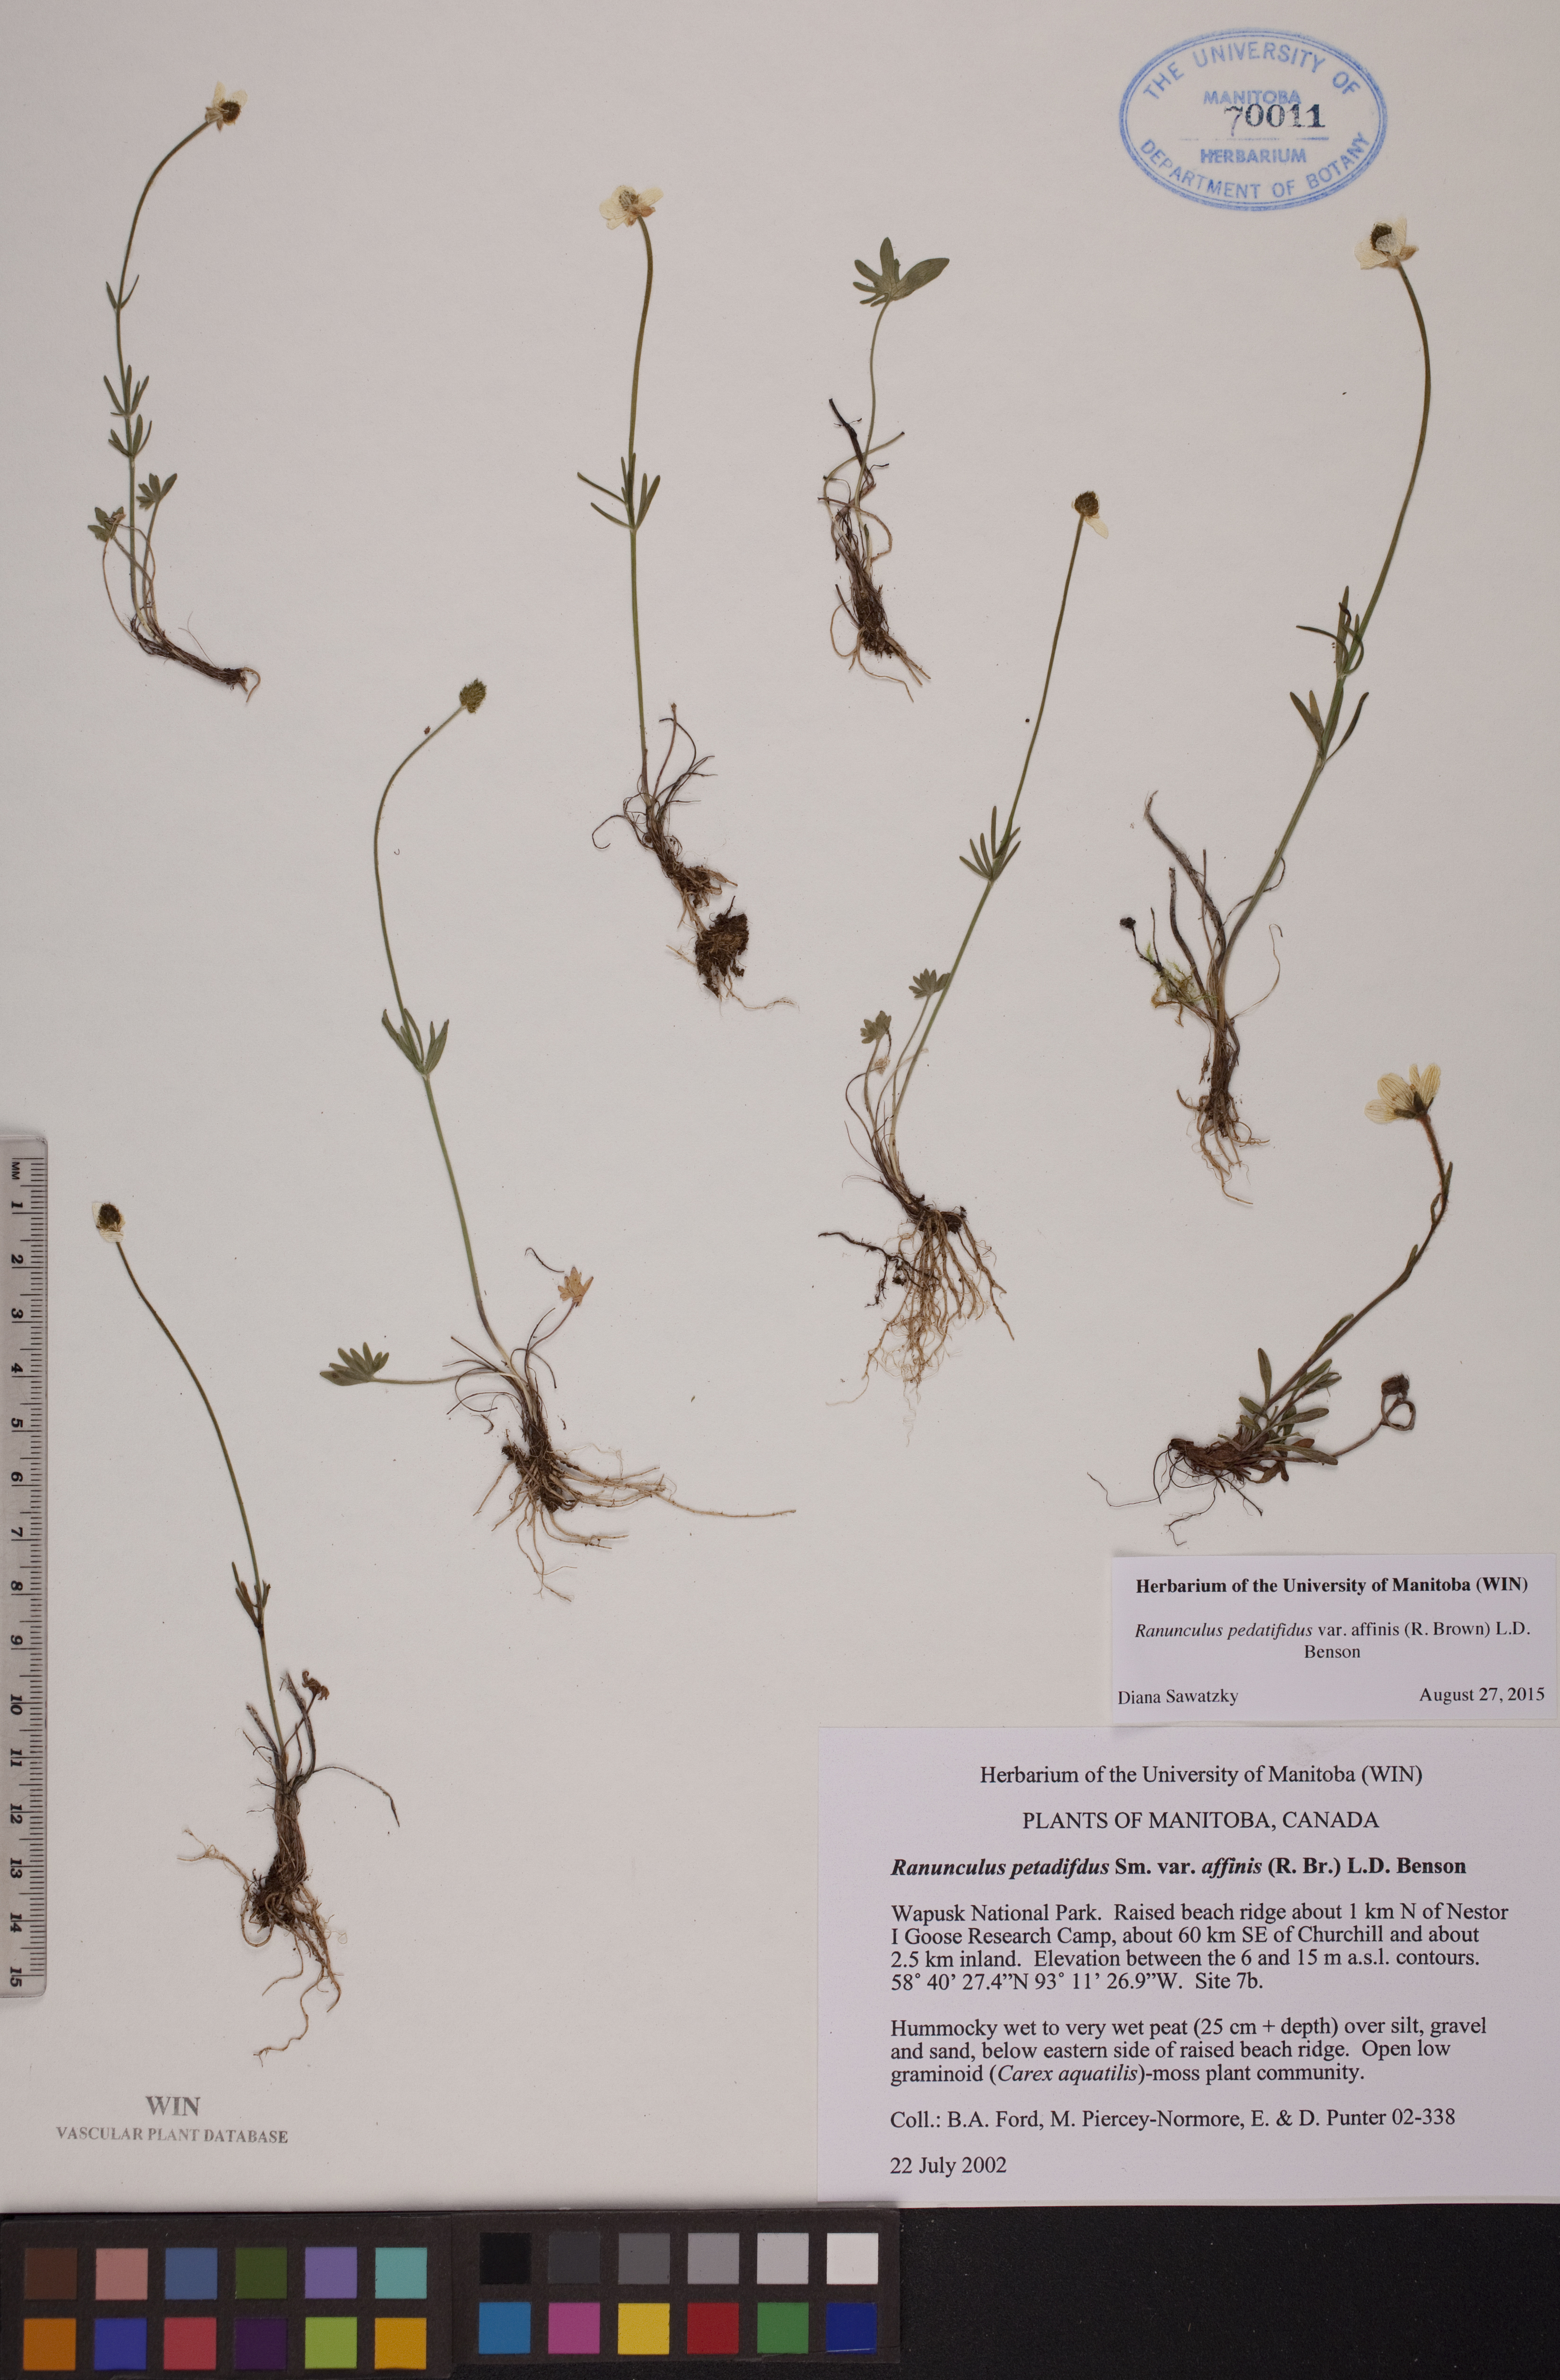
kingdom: Plantae
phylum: Tracheophyta
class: Magnoliopsida
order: Ranunculales
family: Ranunculaceae
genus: Ranunculus
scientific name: Ranunculus arcticus
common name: Bird's-foot buttercup
